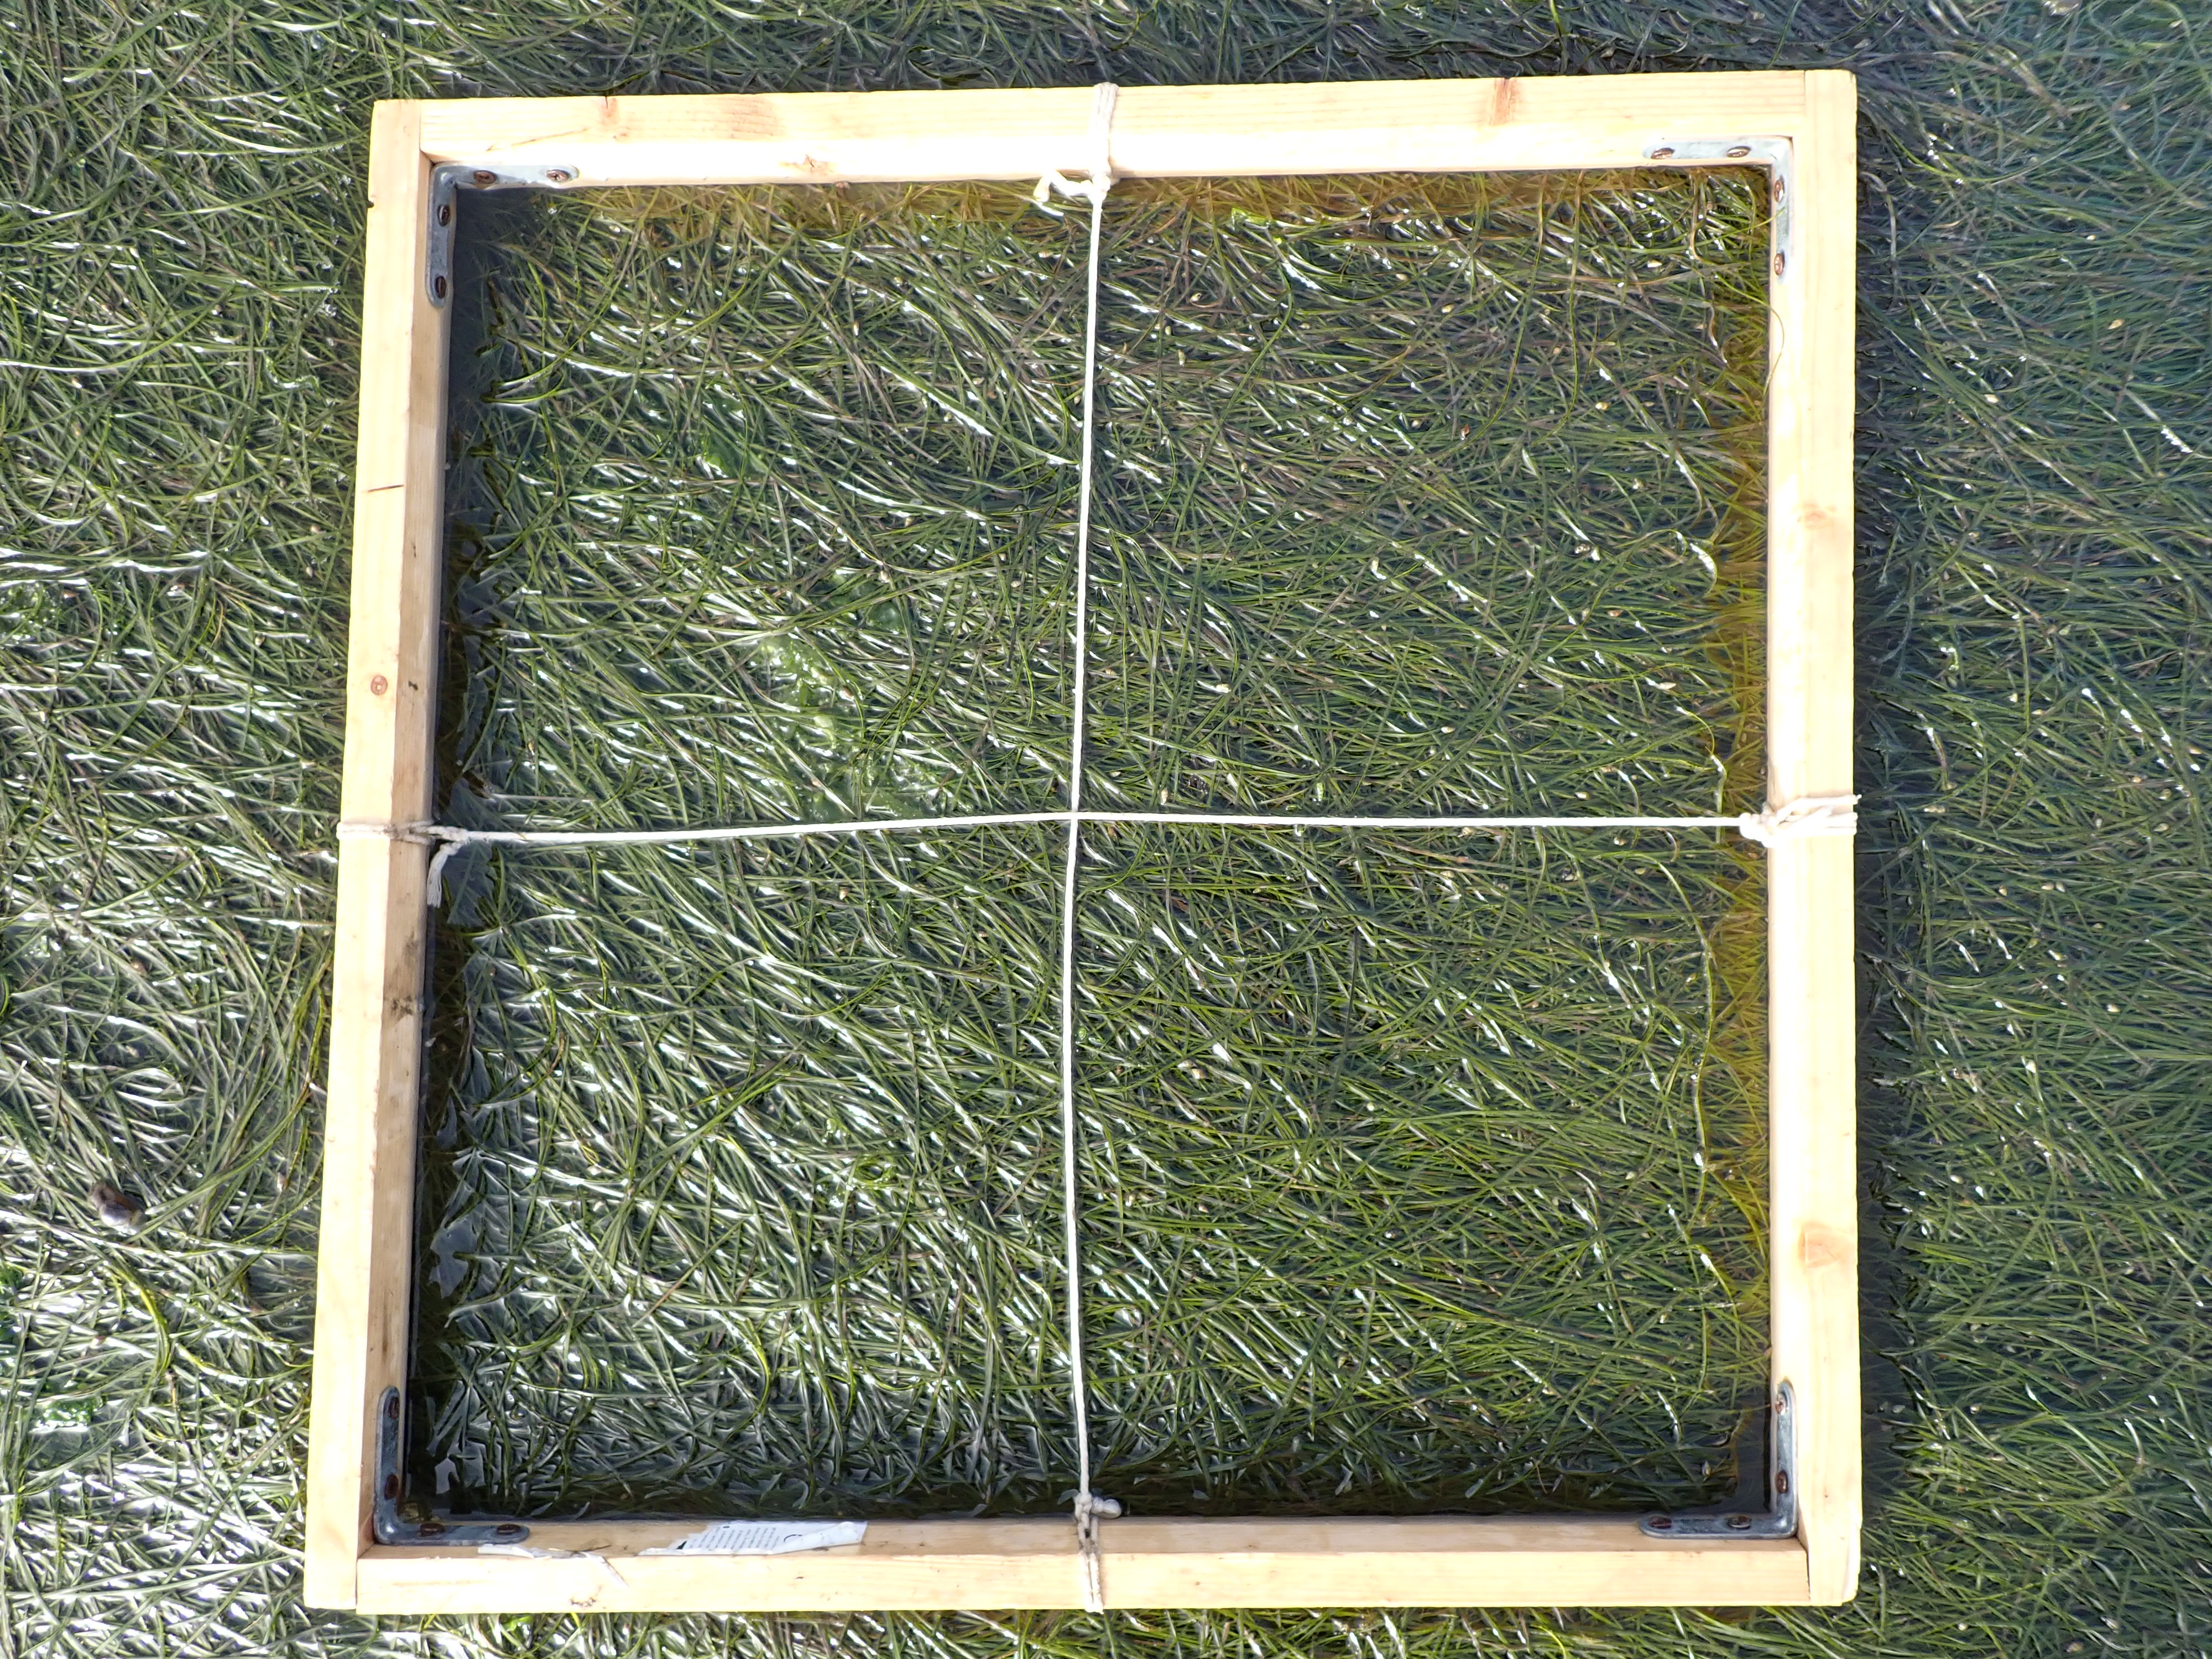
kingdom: Plantae
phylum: Tracheophyta
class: Liliopsida
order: Alismatales
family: Zosteraceae
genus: Zostera
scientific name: Zostera noltii
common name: Dwarf eelgrass
